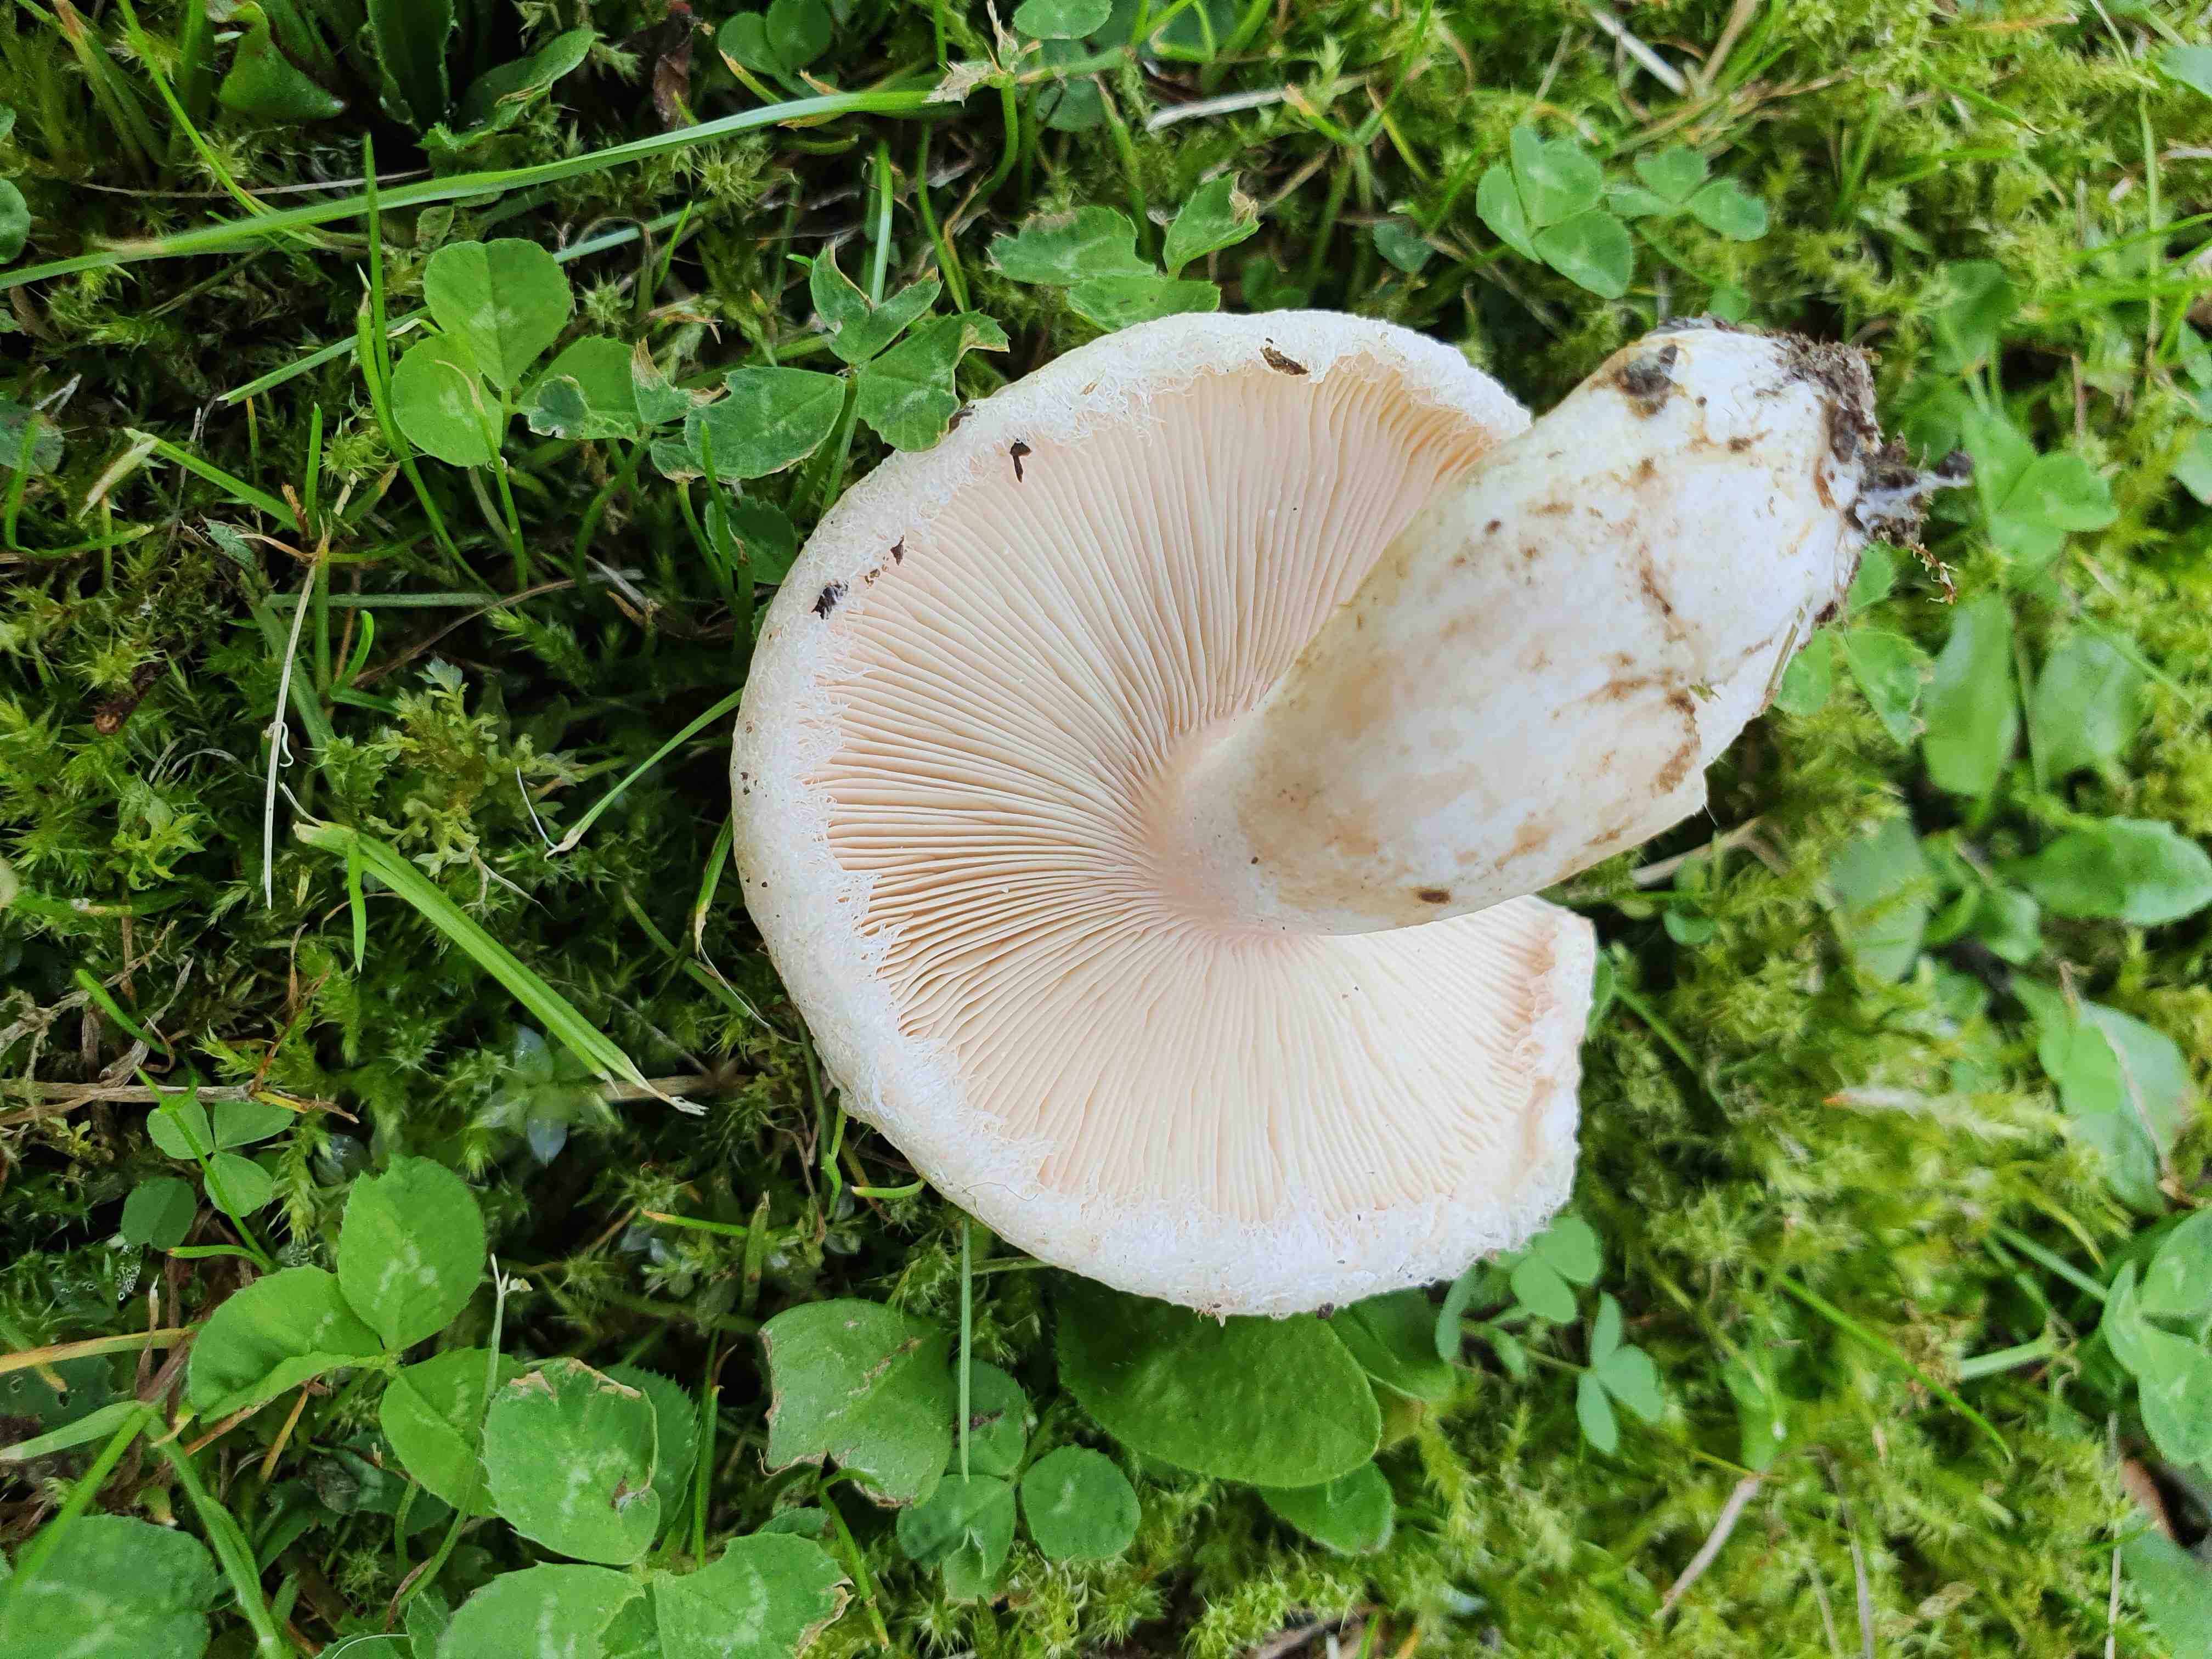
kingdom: Fungi
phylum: Basidiomycota
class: Agaricomycetes
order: Russulales
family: Russulaceae
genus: Lactarius
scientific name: Lactarius pubescens
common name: dunet mælkehat
